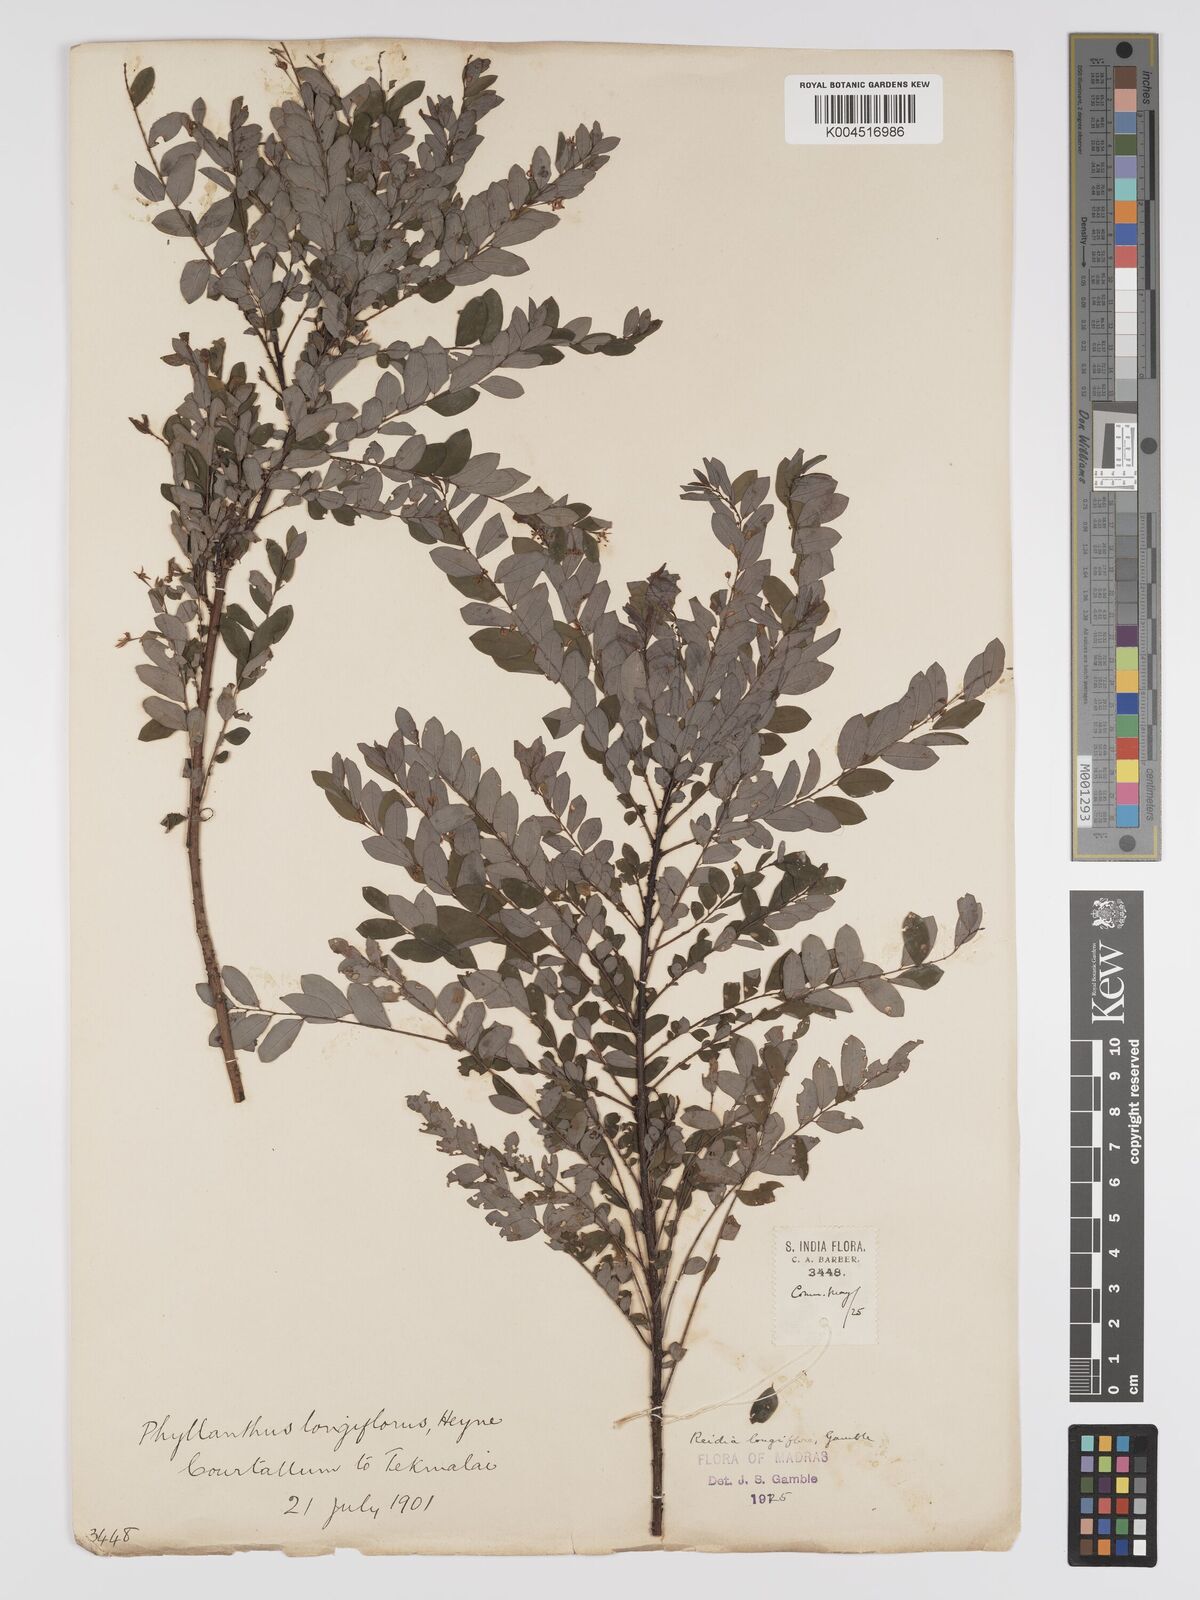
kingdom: Plantae
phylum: Tracheophyta
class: Magnoliopsida
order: Malpighiales
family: Phyllanthaceae
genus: Phyllanthus
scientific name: Phyllanthus heyneanus
